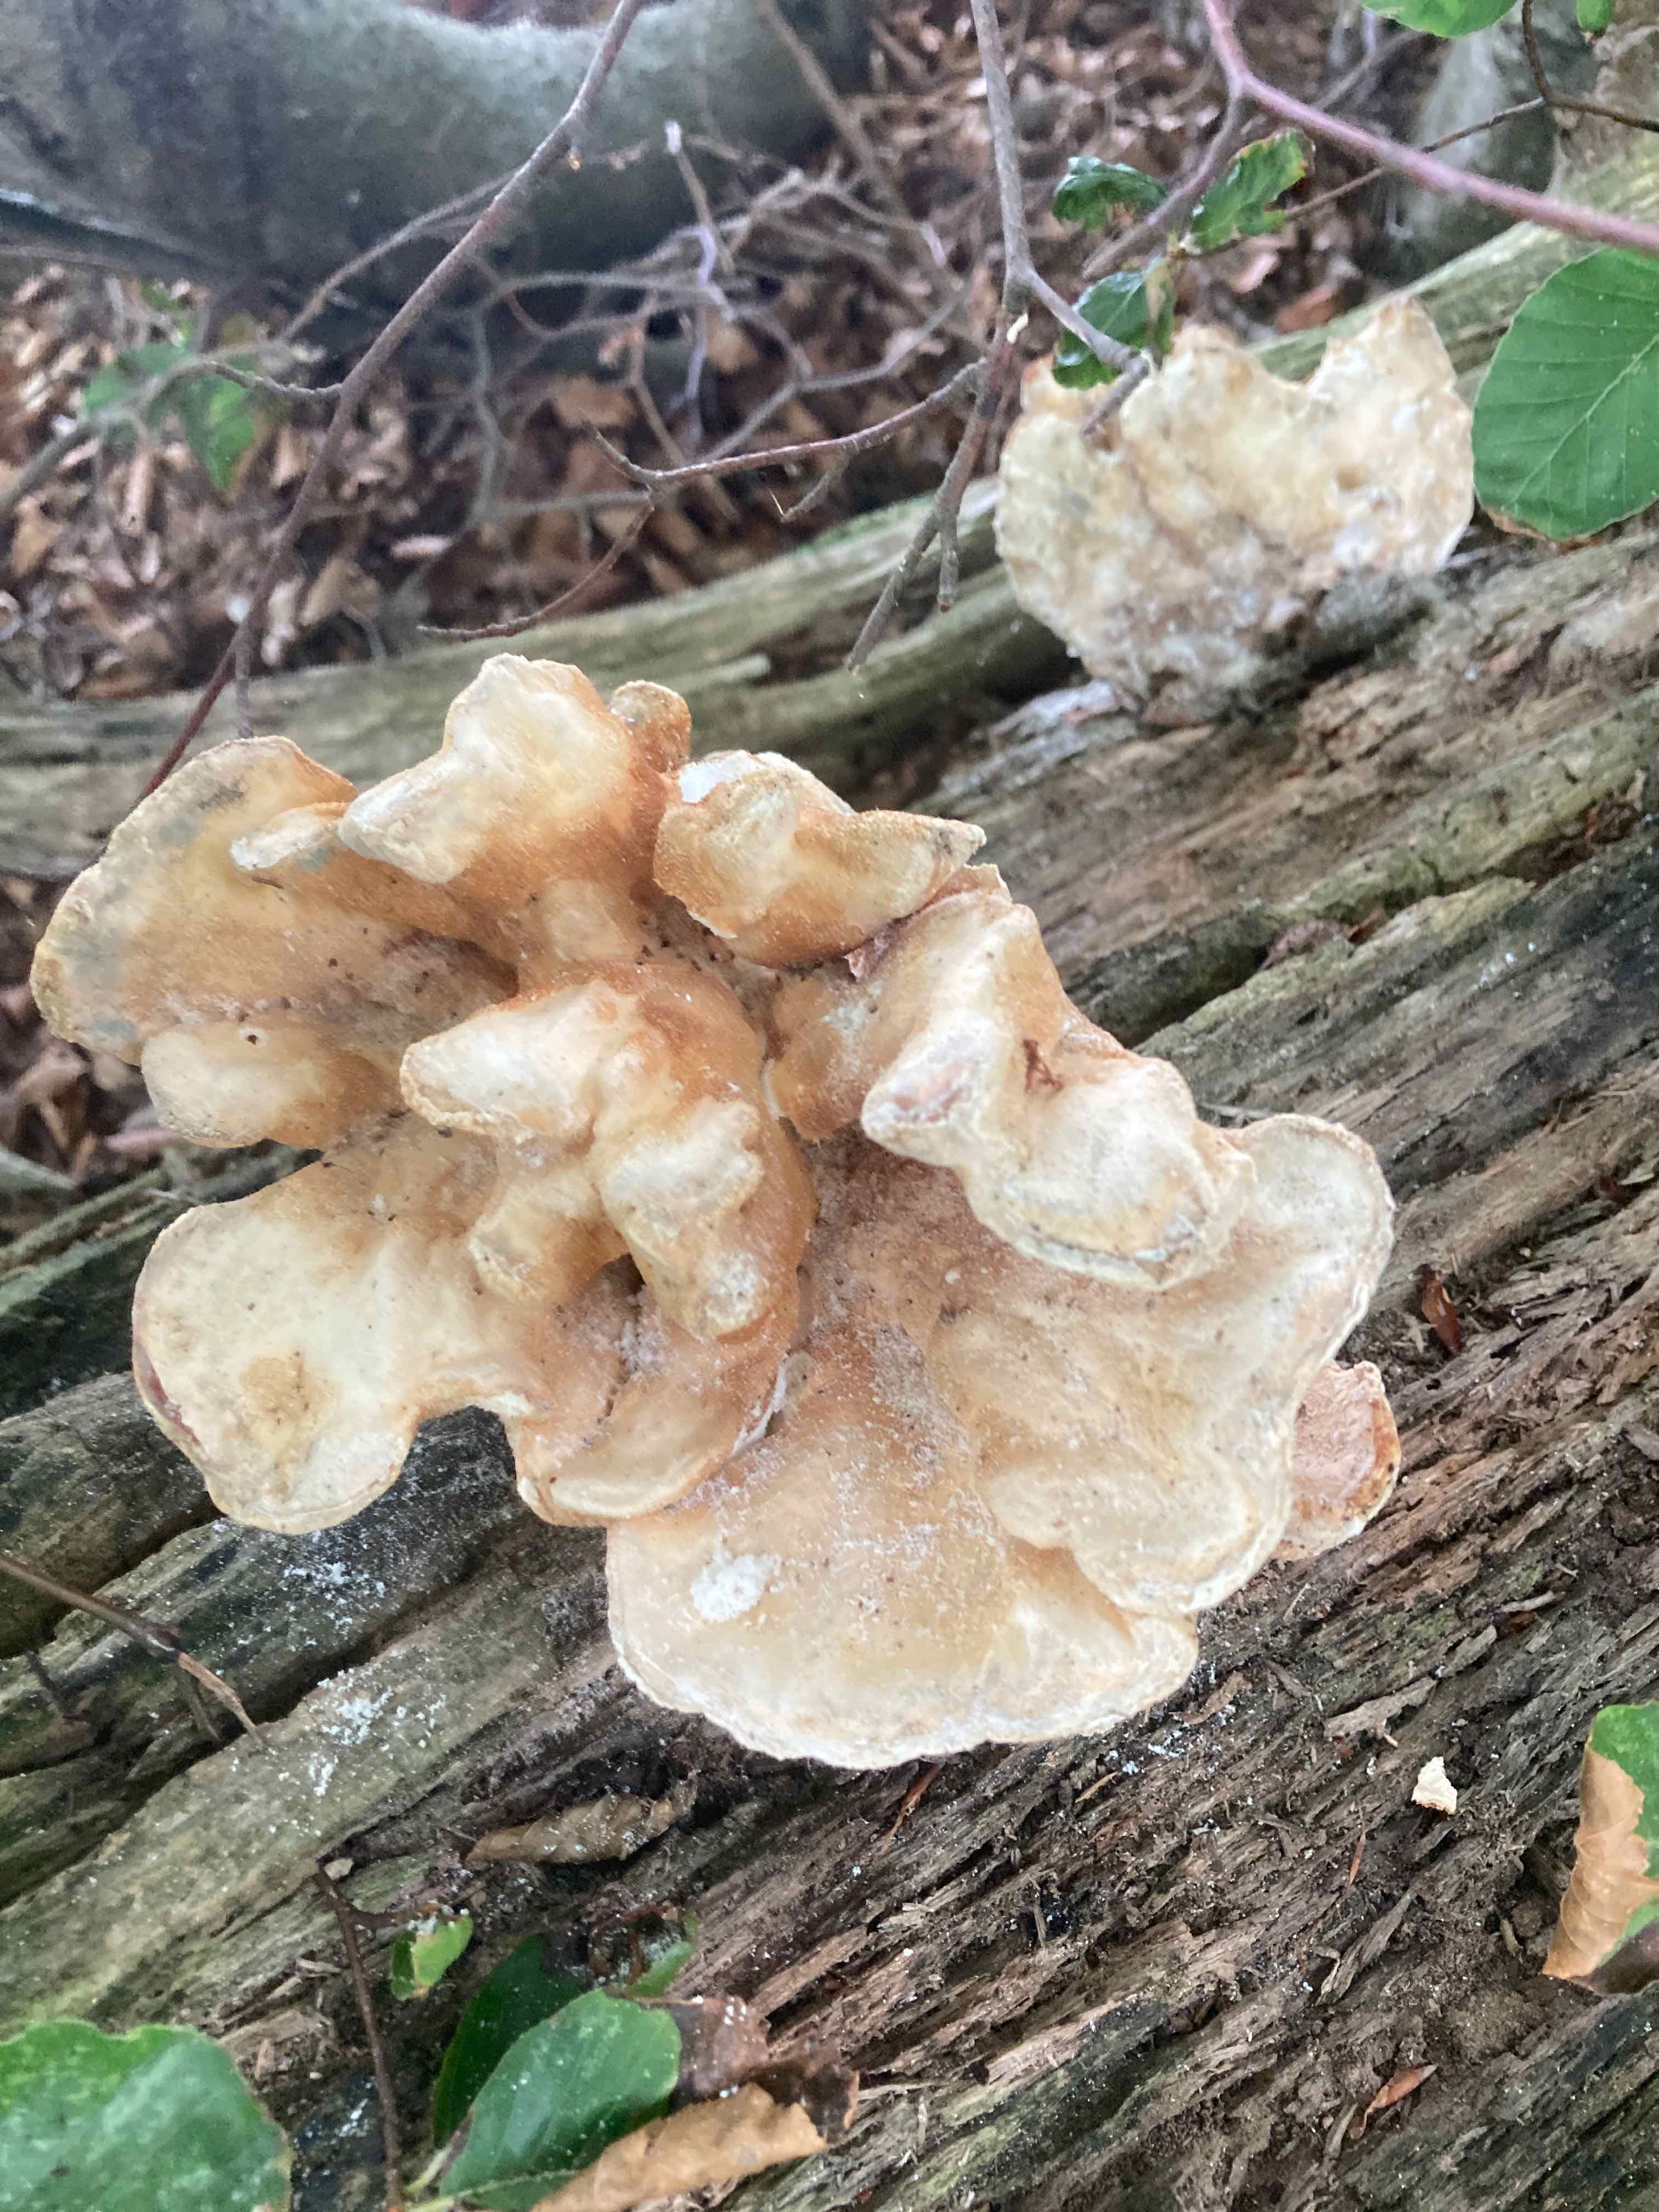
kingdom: Fungi
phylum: Basidiomycota
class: Agaricomycetes
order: Polyporales
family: Laetiporaceae
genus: Laetiporus
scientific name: Laetiporus sulphureus
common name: svovlporesvamp
